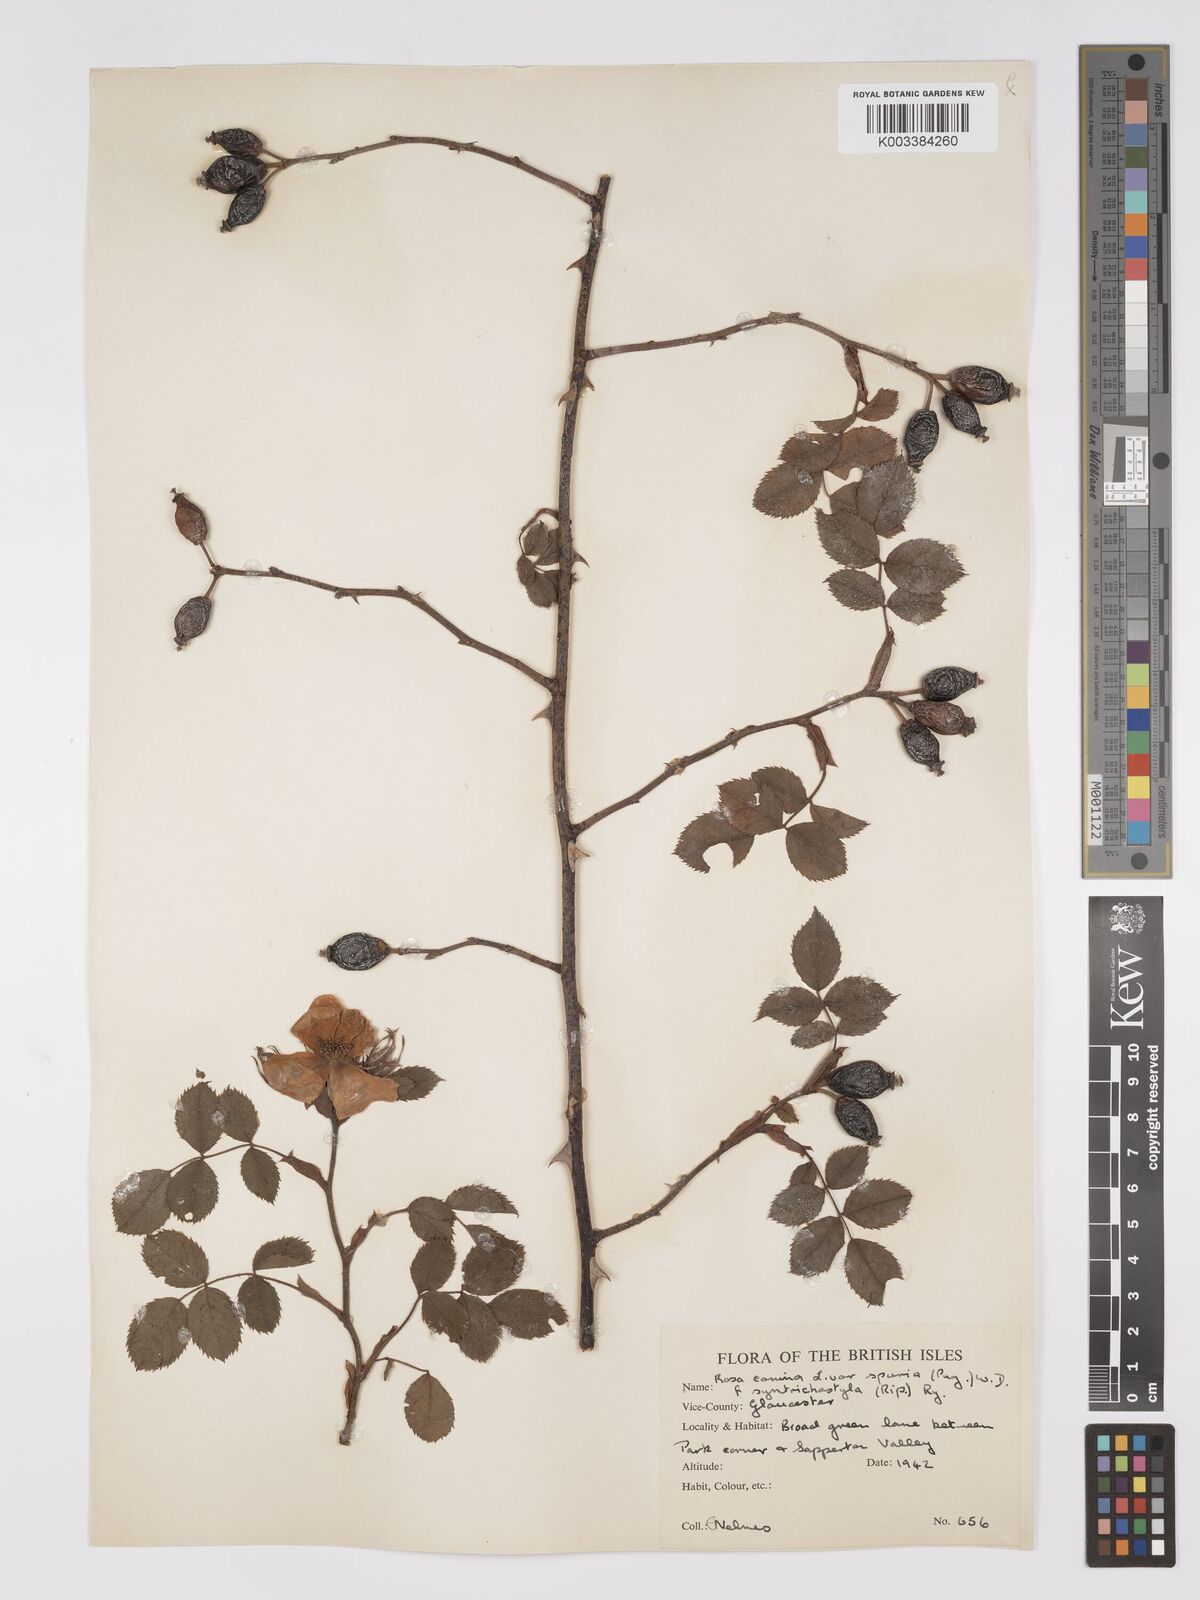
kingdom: Plantae
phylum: Tracheophyta
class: Magnoliopsida
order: Rosales
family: Rosaceae
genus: Rosa
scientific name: Rosa canina
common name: Dog rose
